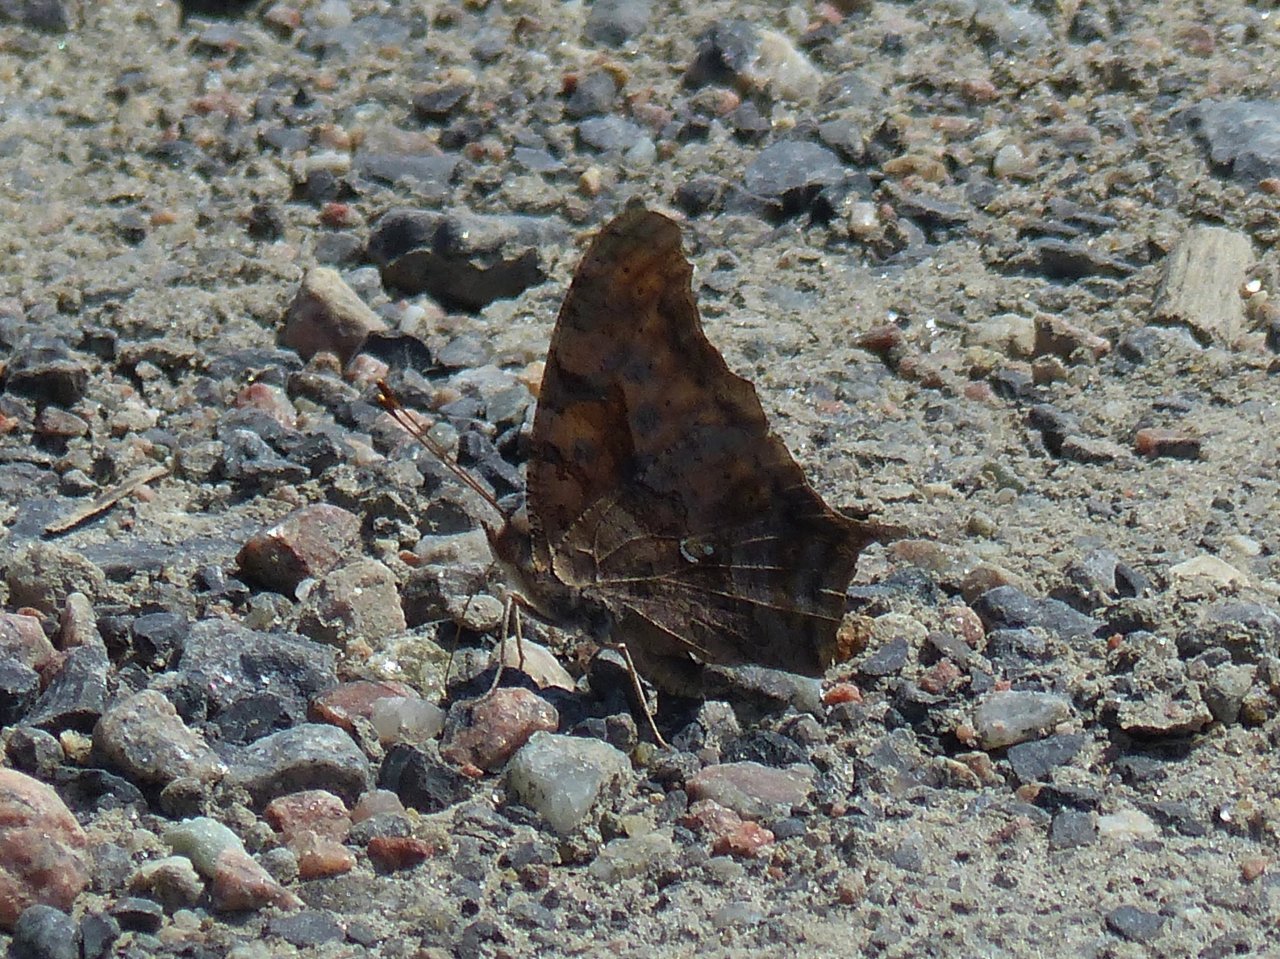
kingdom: Animalia
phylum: Arthropoda
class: Insecta
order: Lepidoptera
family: Nymphalidae
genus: Polygonia
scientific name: Polygonia interrogationis
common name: Question Mark
